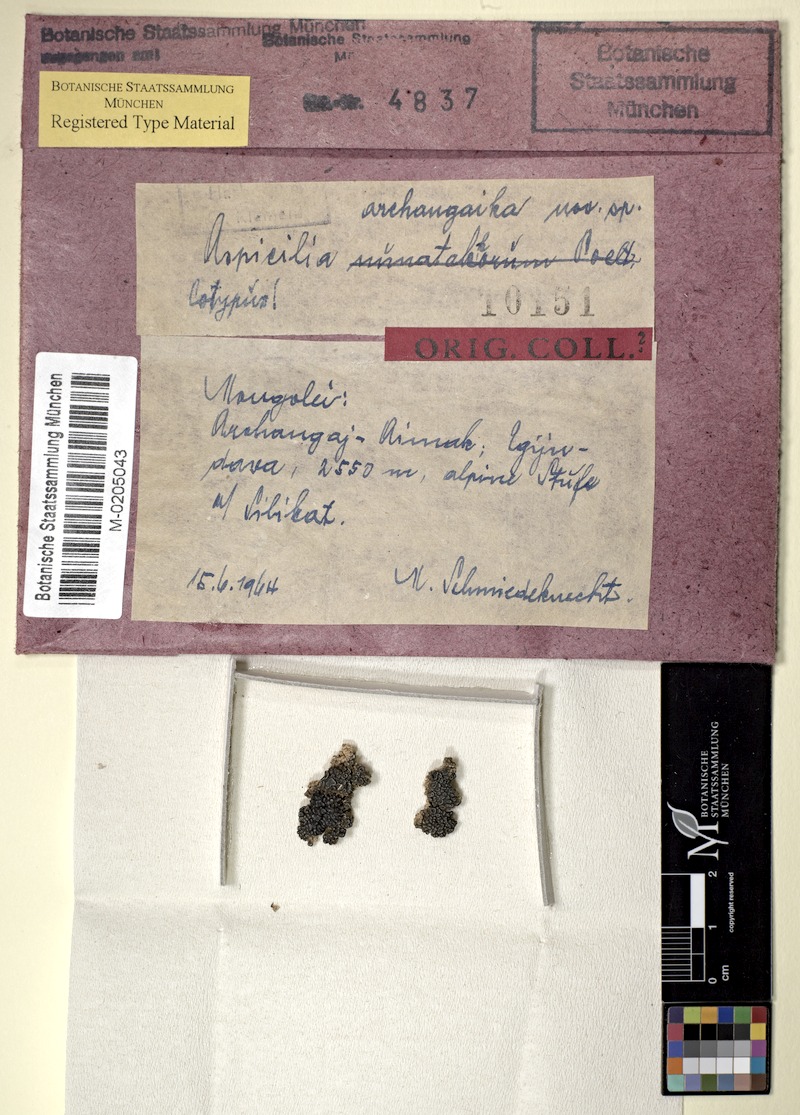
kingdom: Fungi
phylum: Ascomycota
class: Lecanoromycetes
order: Pertusariales
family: Megasporaceae
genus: Aspicilia
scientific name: Aspicilia
